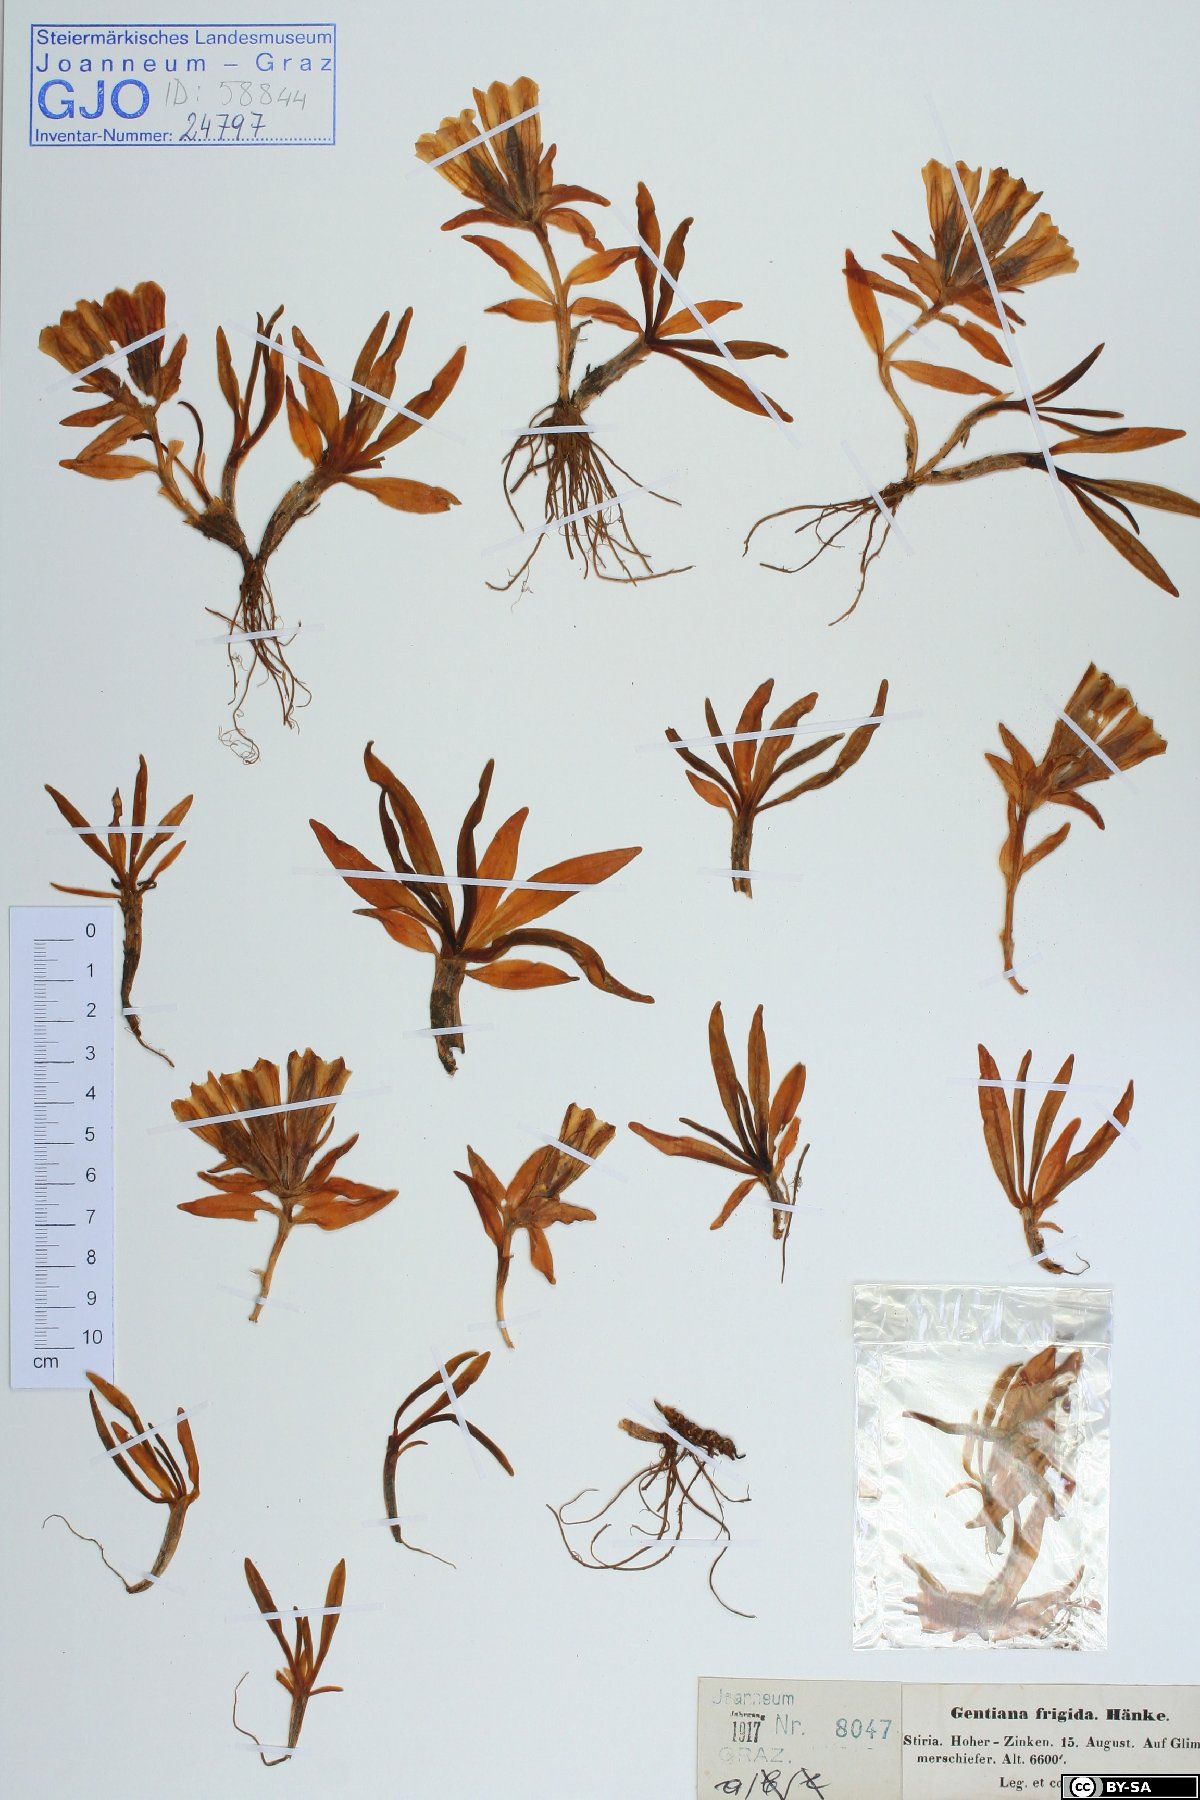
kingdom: Plantae
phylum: Tracheophyta
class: Magnoliopsida
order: Gentianales
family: Gentianaceae
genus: Gentiana
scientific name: Gentiana frigida
